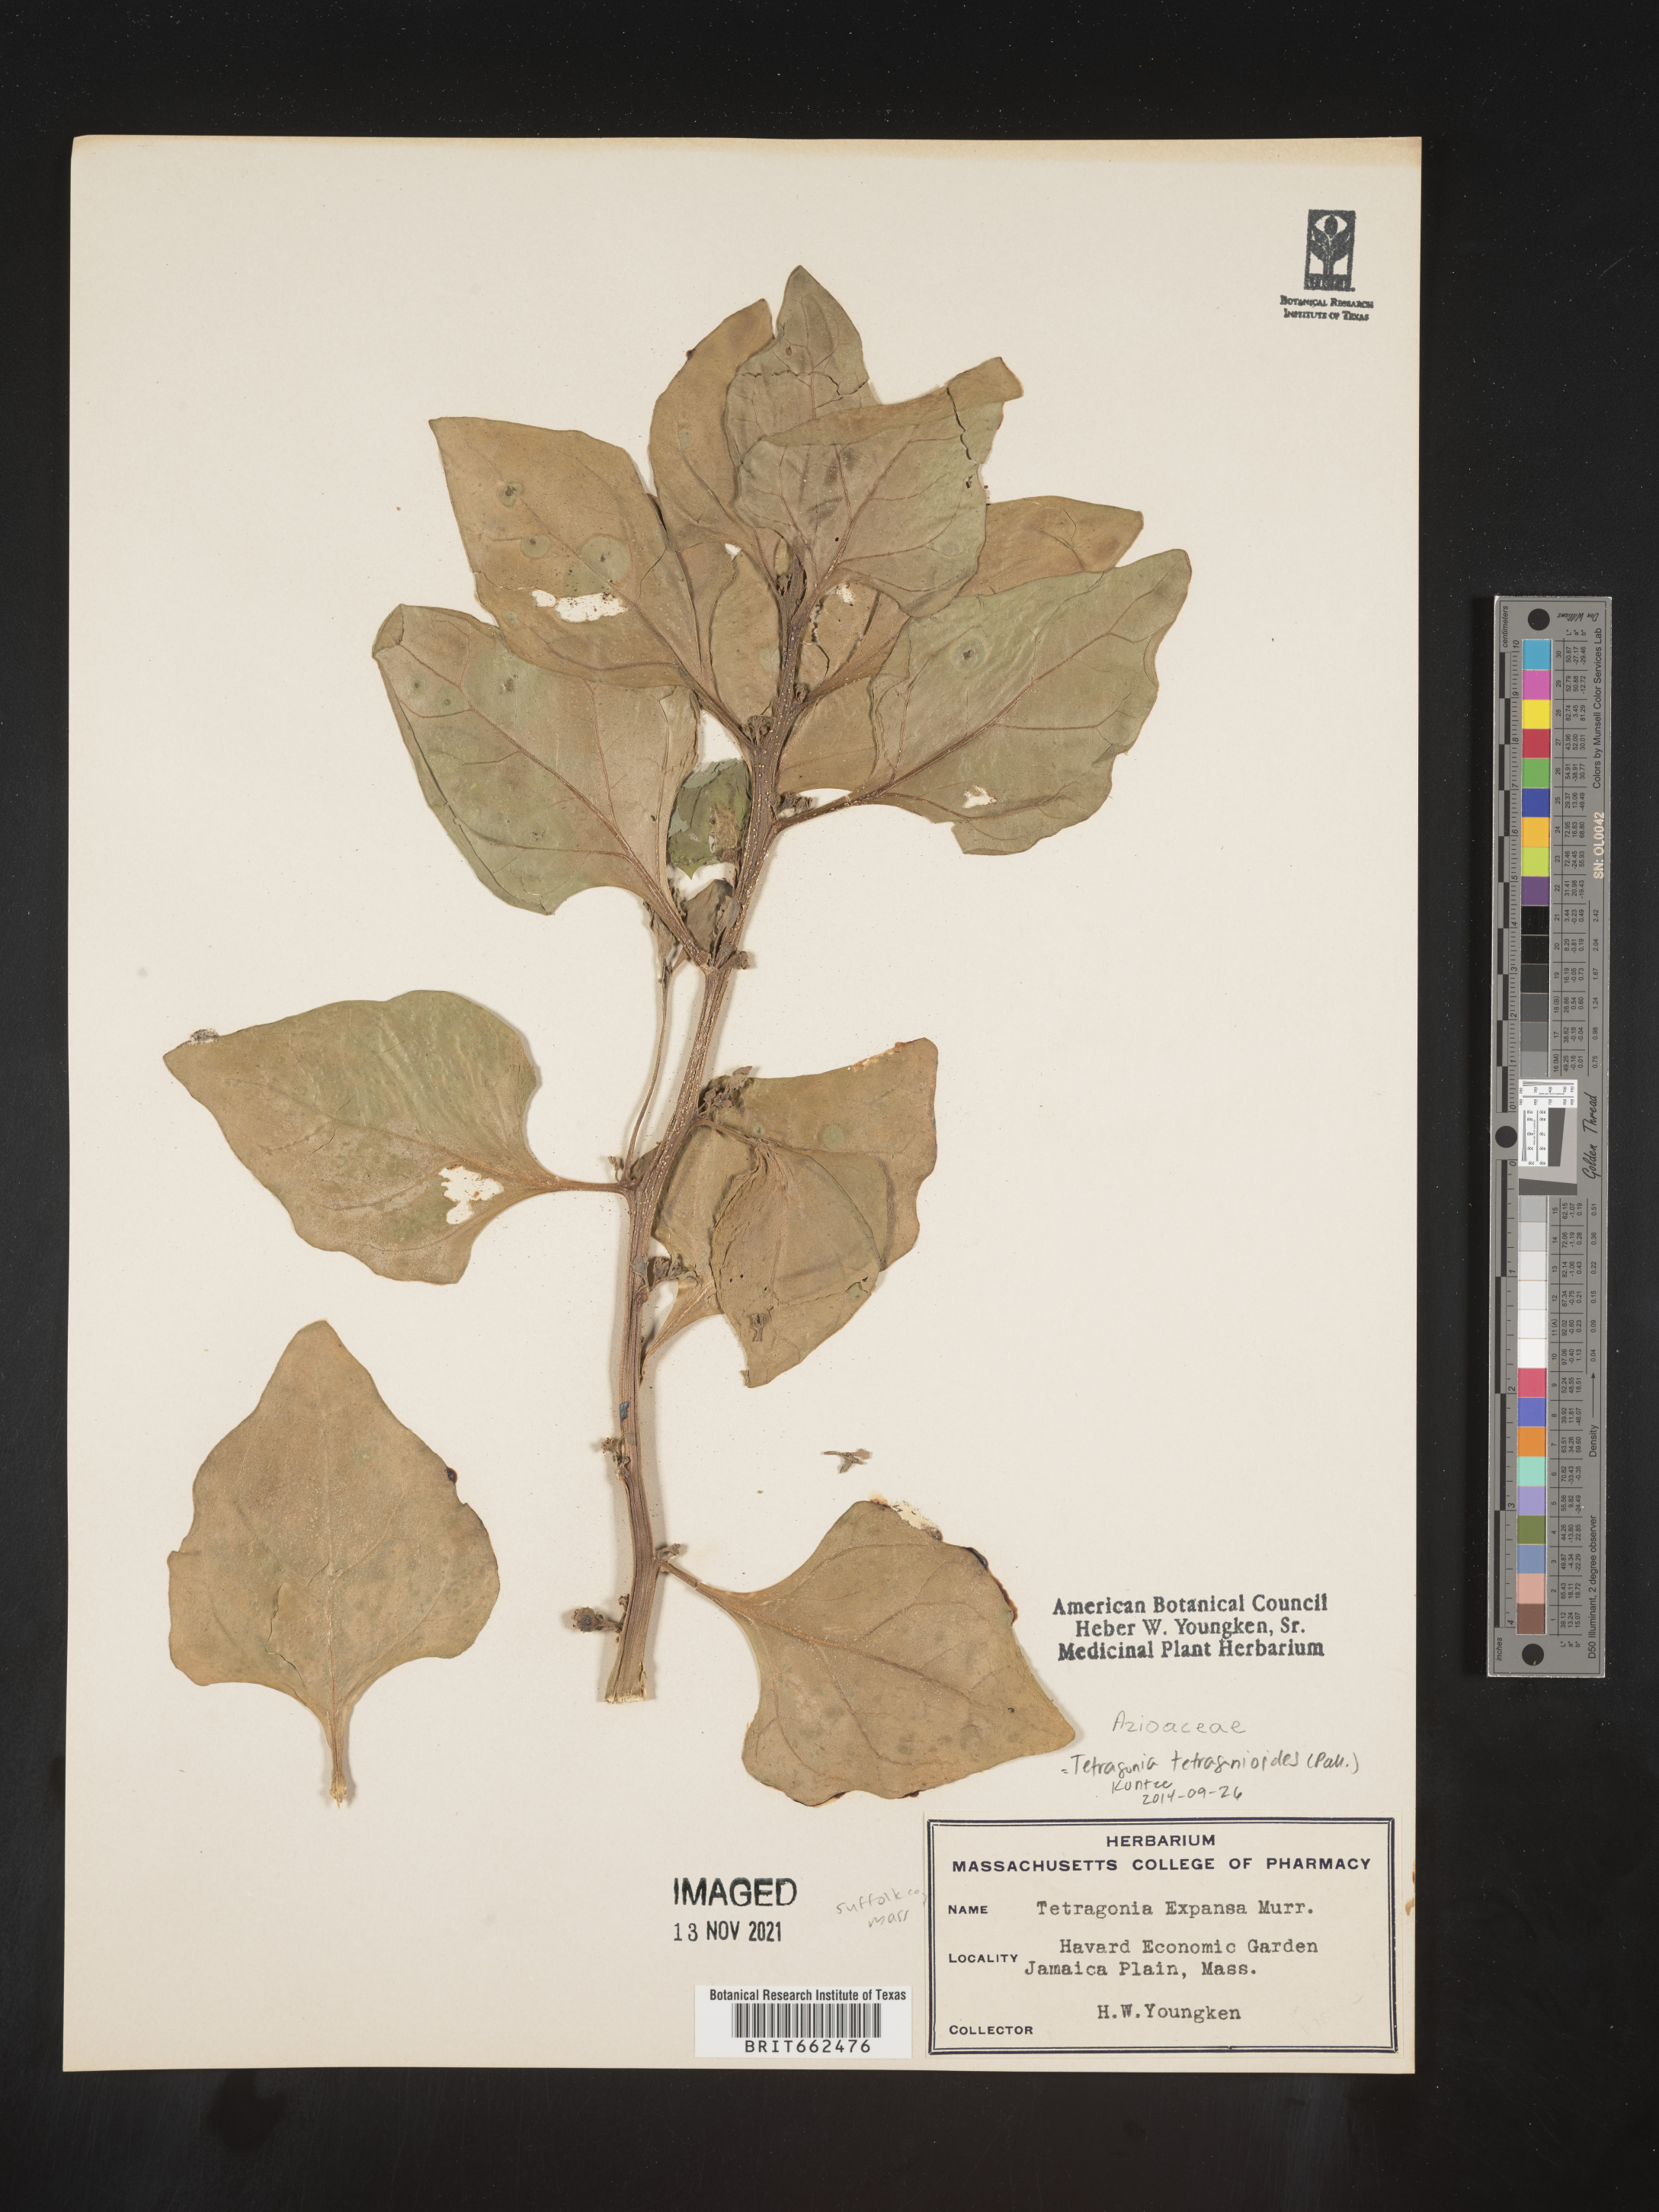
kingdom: Plantae
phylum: Tracheophyta
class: Magnoliopsida
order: Caryophyllales
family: Aizoaceae
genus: Tetragonia
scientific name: Tetragonia
